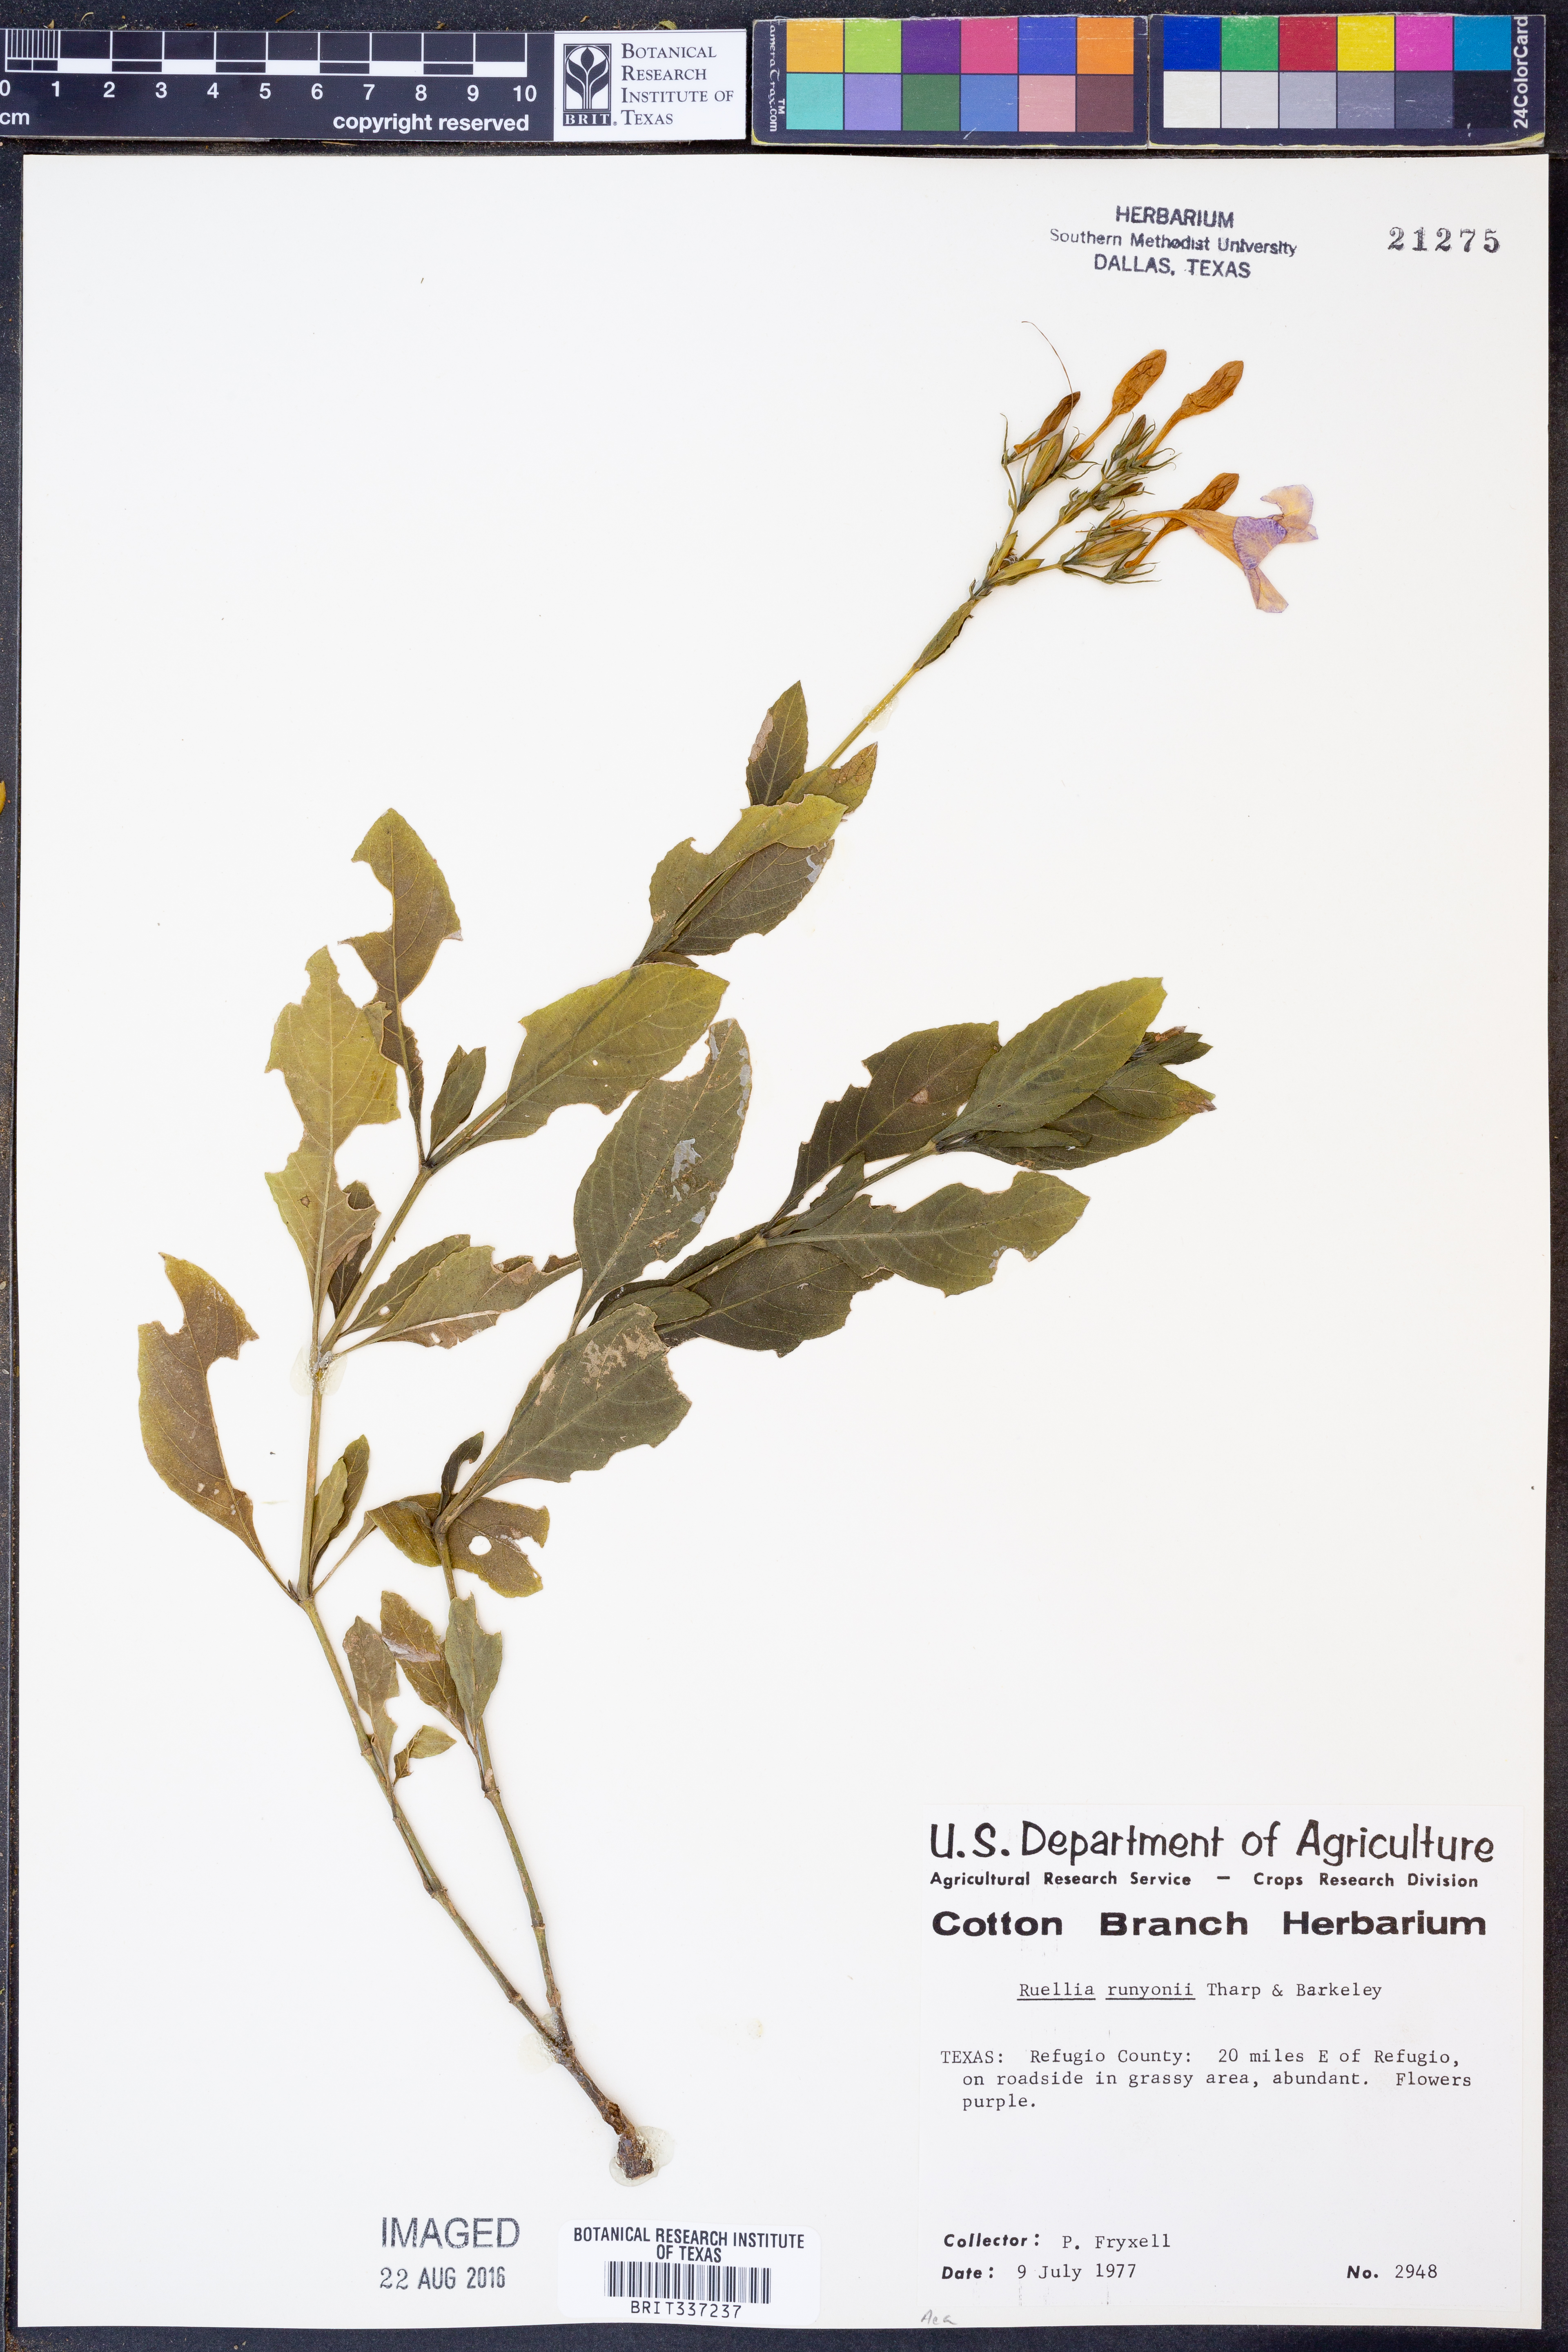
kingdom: Plantae
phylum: Tracheophyta
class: Magnoliopsida
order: Lamiales
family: Acanthaceae
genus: Ruellia
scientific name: Ruellia ciliatiflora
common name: Hairyflower wild petunia
